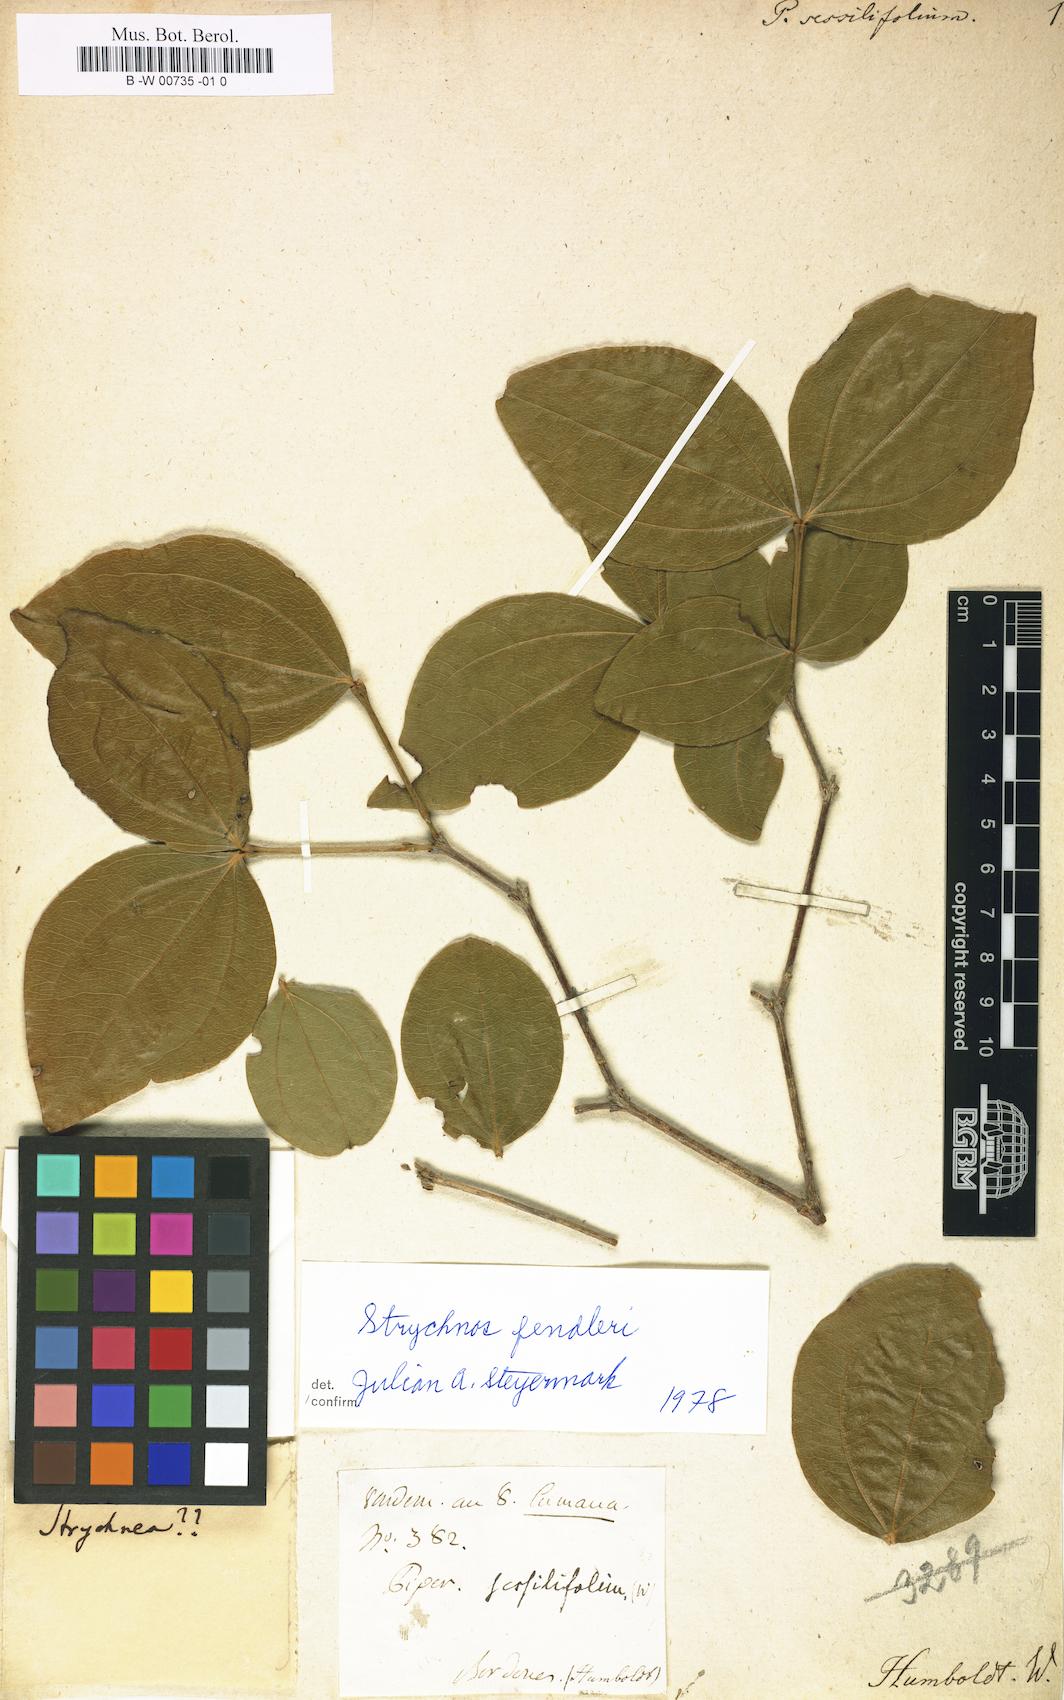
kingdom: Plantae
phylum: Tracheophyta
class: Magnoliopsida
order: Piperales
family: Piperaceae
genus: Piper
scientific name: Piper sessilifolium
